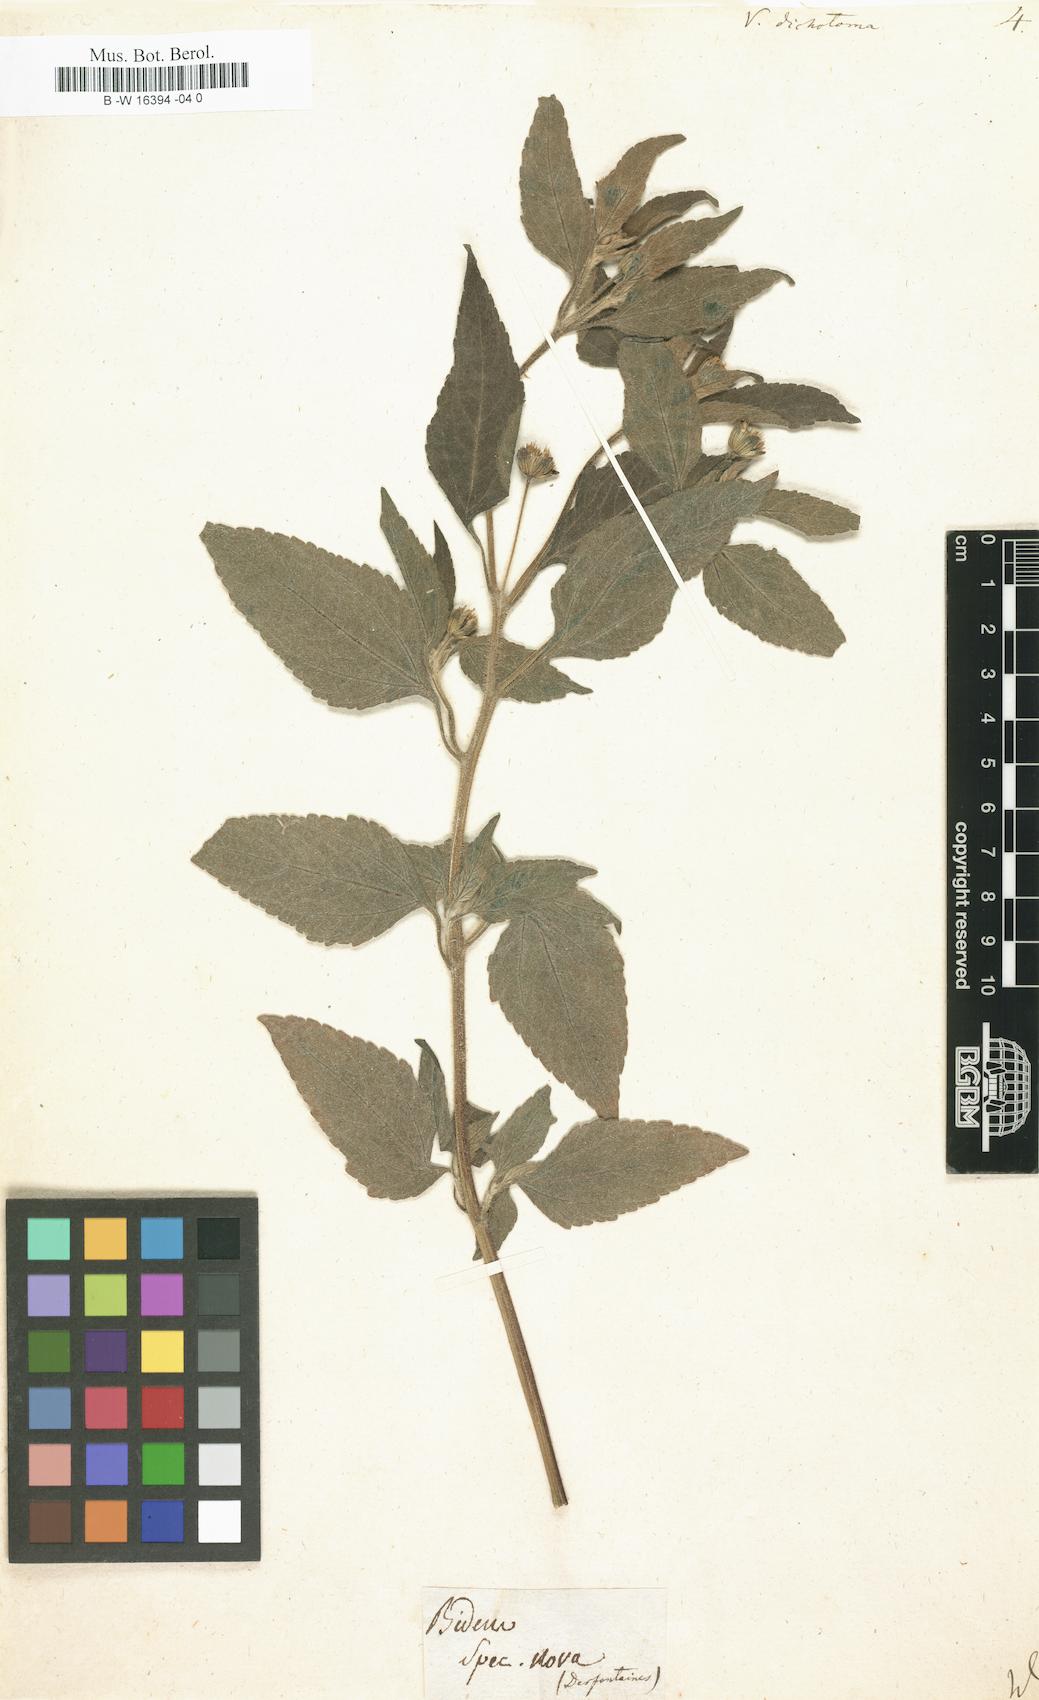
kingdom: Plantae
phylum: Tracheophyta
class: Magnoliopsida
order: Asterales
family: Asteraceae
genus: Blainvillea
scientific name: Blainvillea dichotoma
